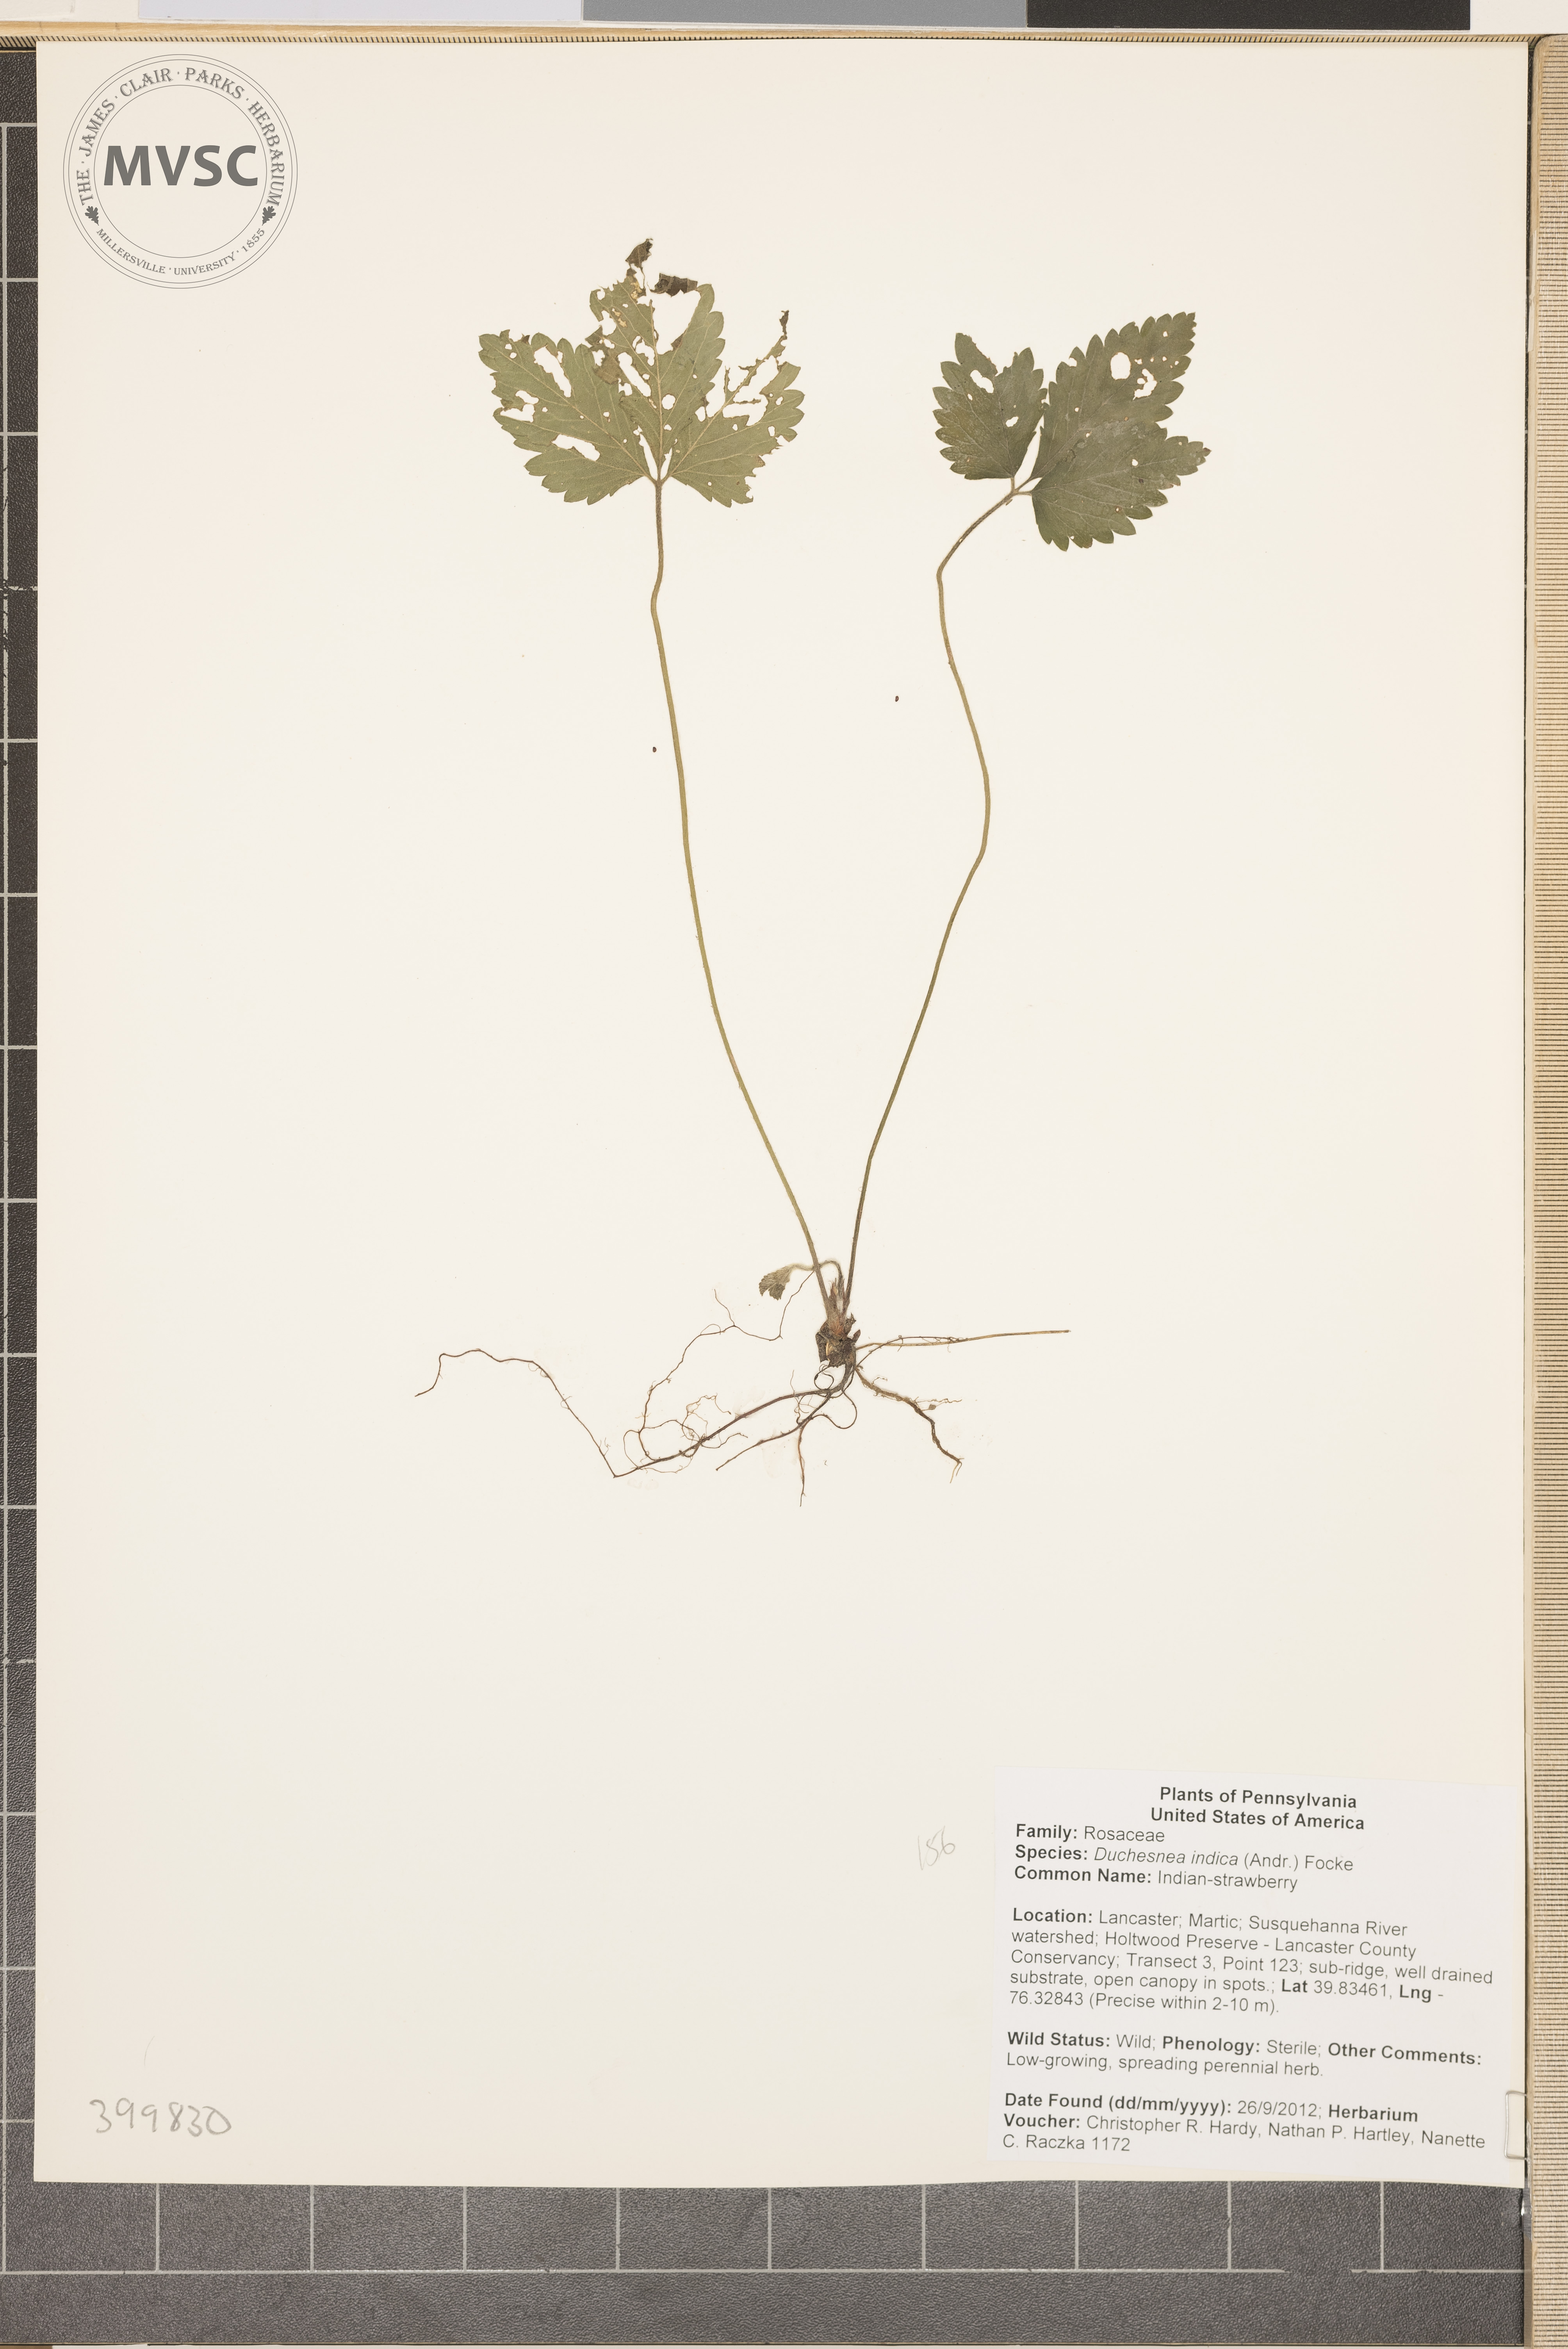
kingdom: Plantae
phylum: Tracheophyta
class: Magnoliopsida
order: Rosales
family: Rosaceae
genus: Potentilla
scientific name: Potentilla indica
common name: Indian-strawberry
